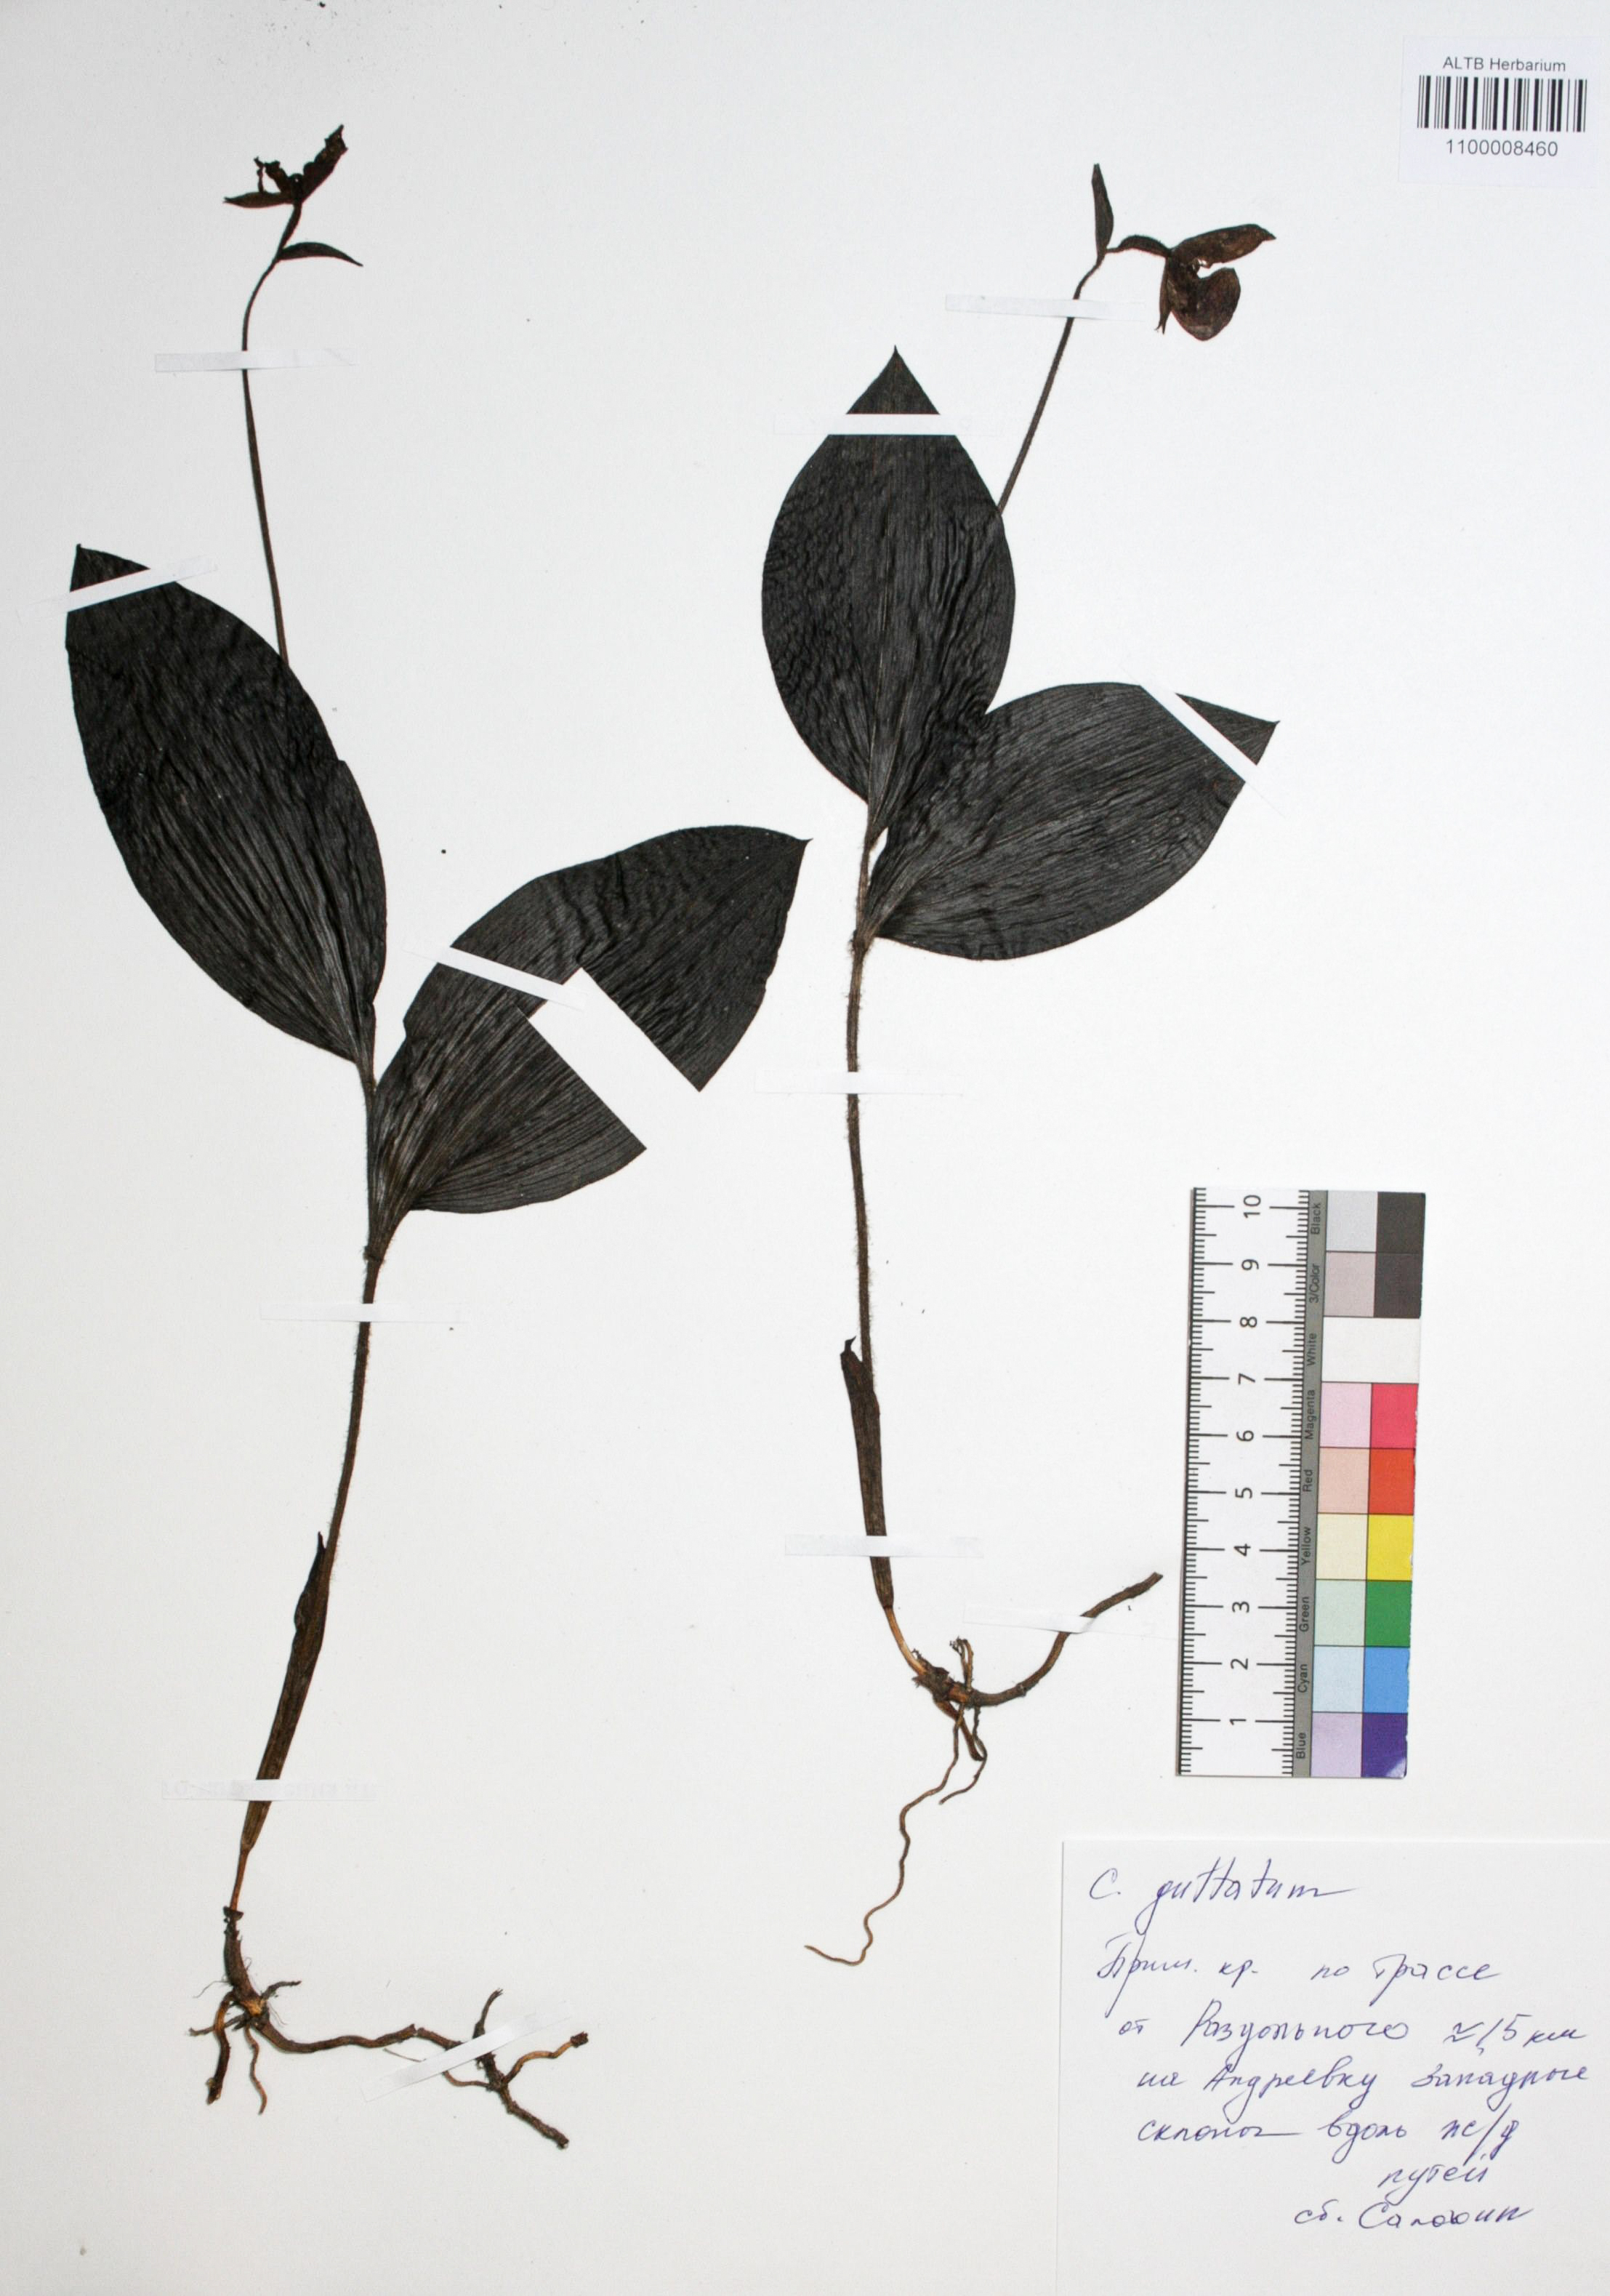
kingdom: Plantae
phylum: Tracheophyta
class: Liliopsida
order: Asparagales
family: Orchidaceae
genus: Cypripedium
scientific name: Cypripedium guttatum
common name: Pink lady slipper
